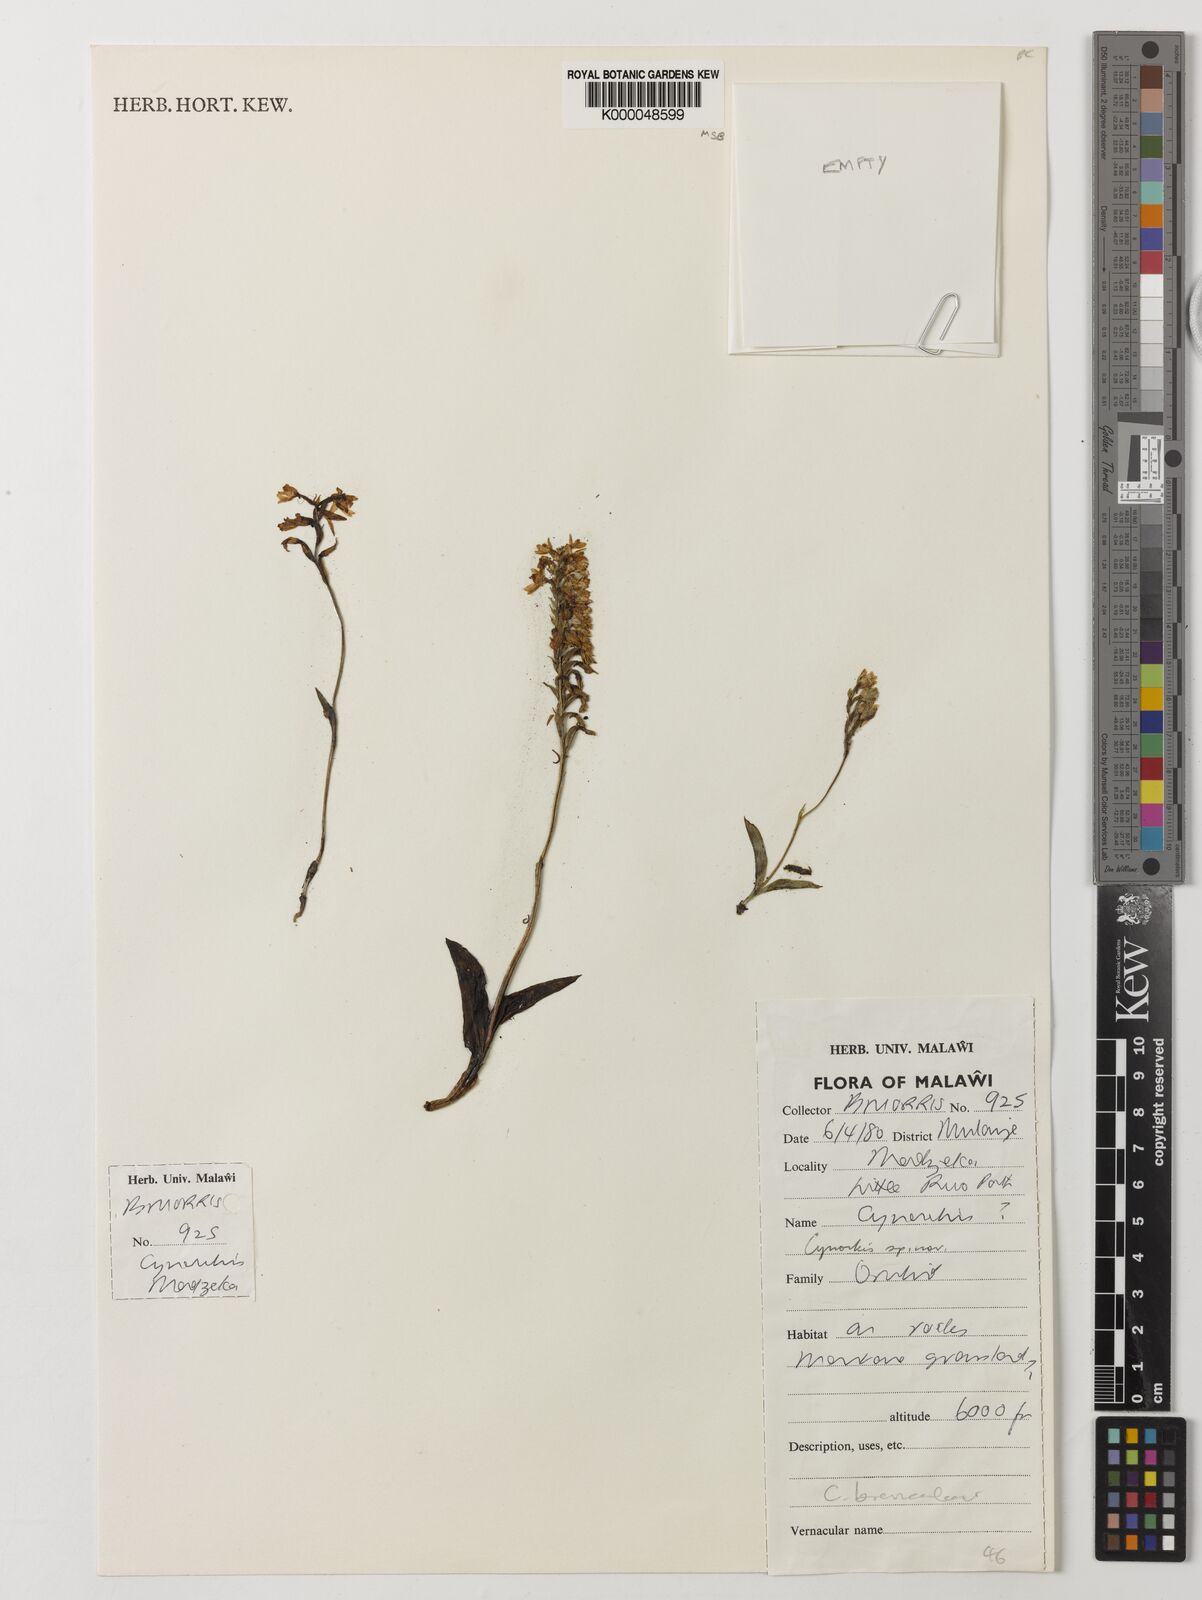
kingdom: Plantae
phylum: Tracheophyta
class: Liliopsida
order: Asparagales
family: Orchidaceae
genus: Cynorkis
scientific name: Cynorkis brevicalcar
